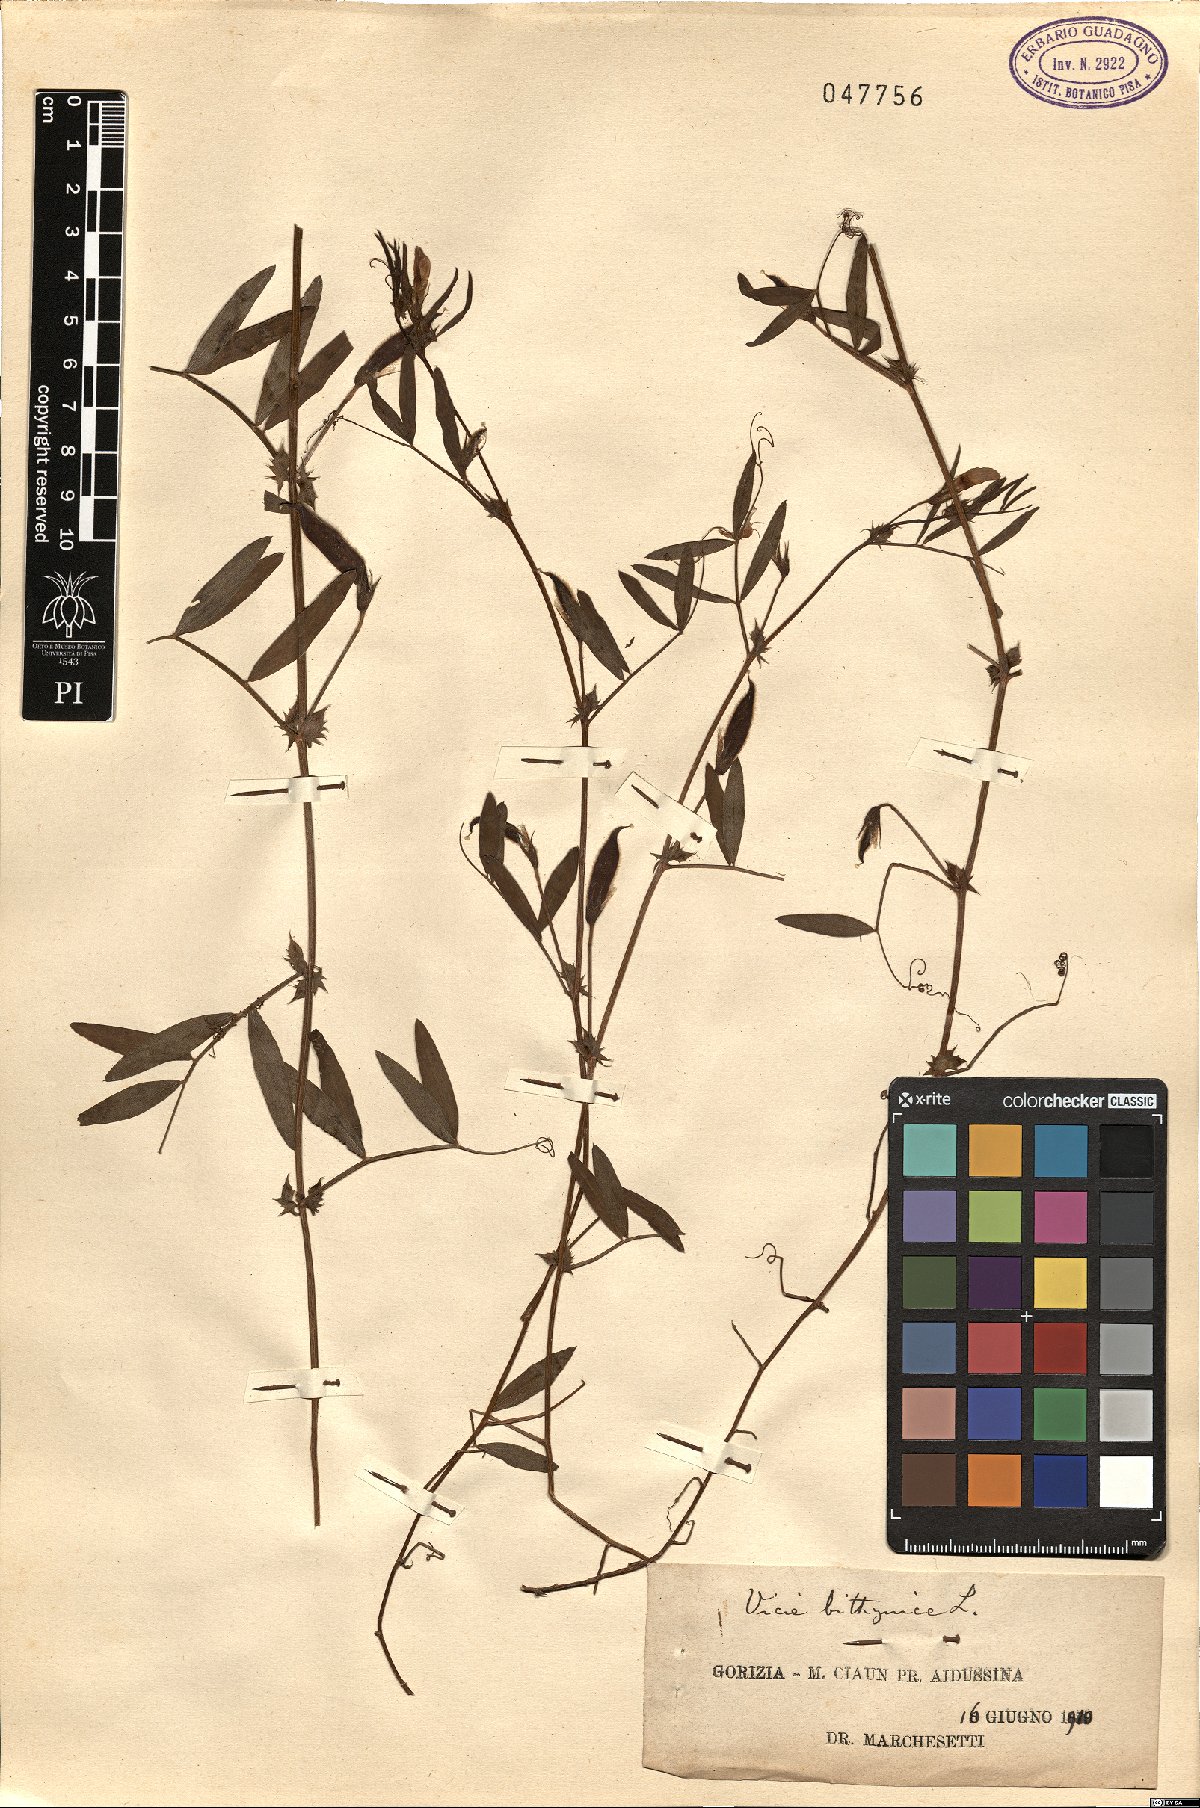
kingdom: Plantae
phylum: Tracheophyta
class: Magnoliopsida
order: Fabales
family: Fabaceae
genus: Vicia
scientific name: Vicia bithynica
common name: Bithynian vetch
